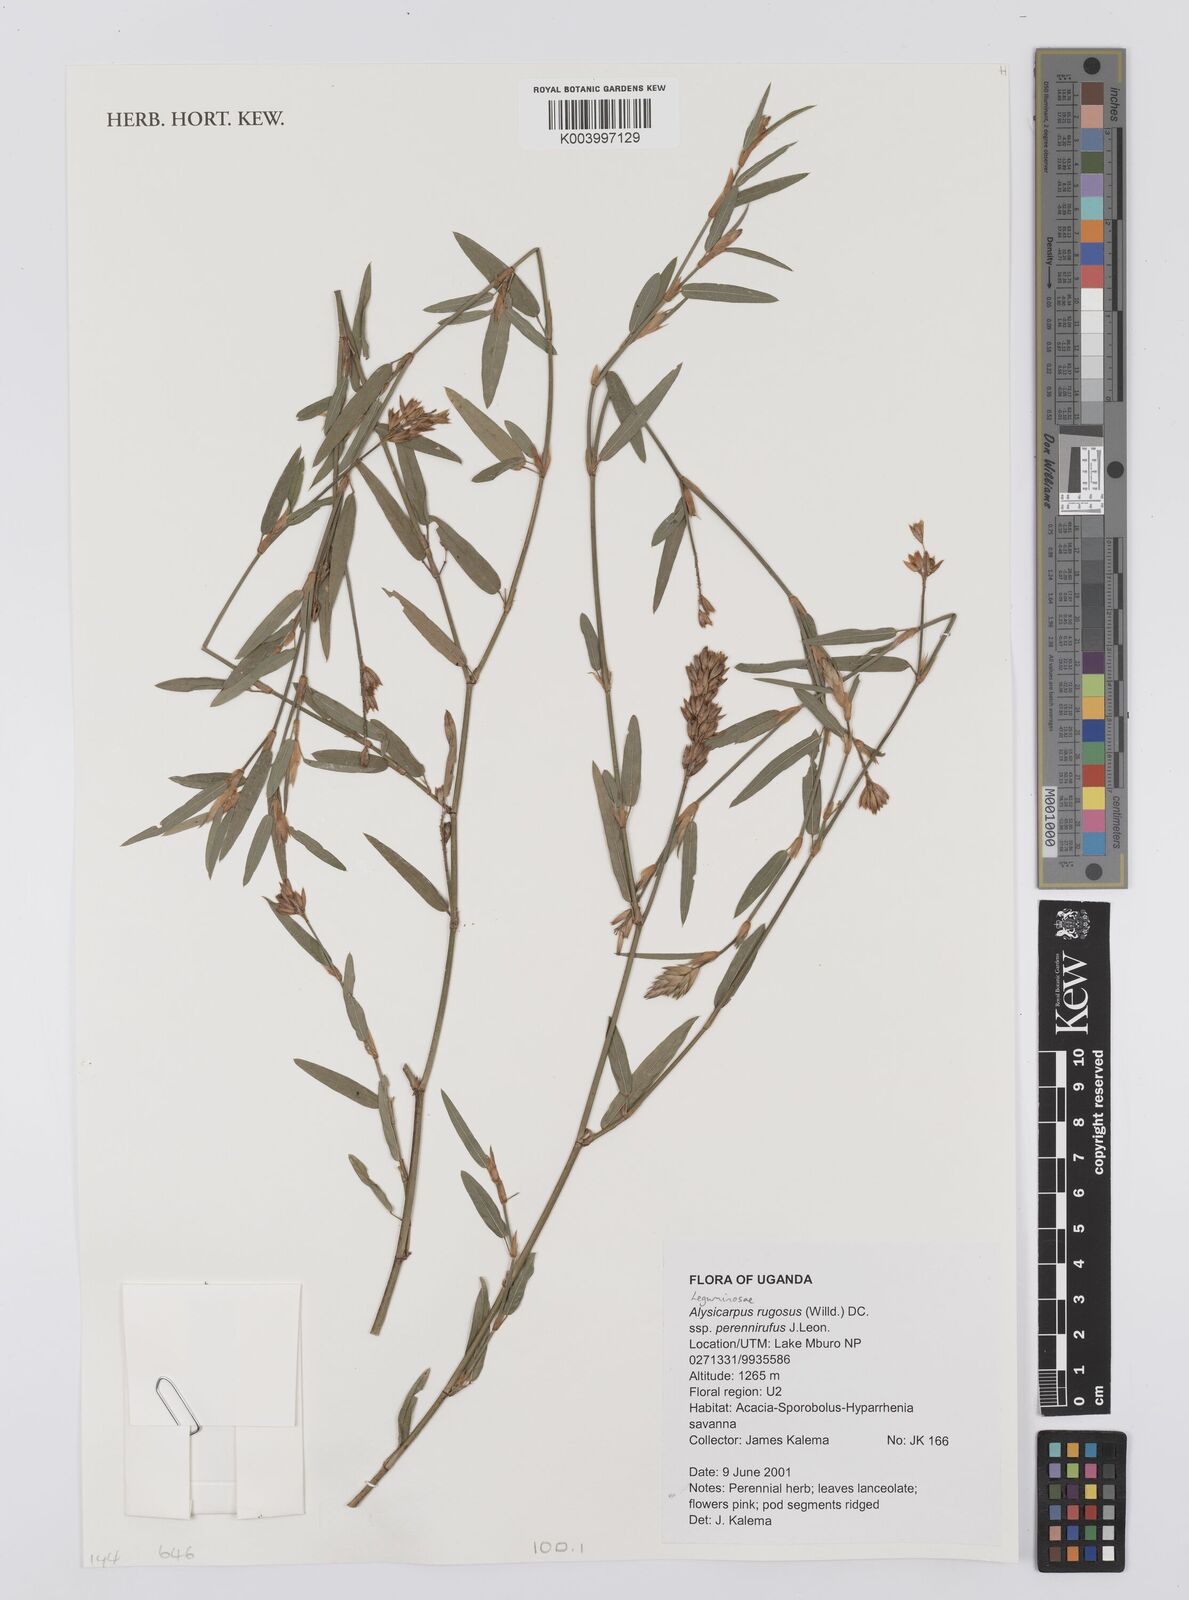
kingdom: Plantae
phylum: Tracheophyta
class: Magnoliopsida
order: Fabales
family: Fabaceae
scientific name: Fabaceae
